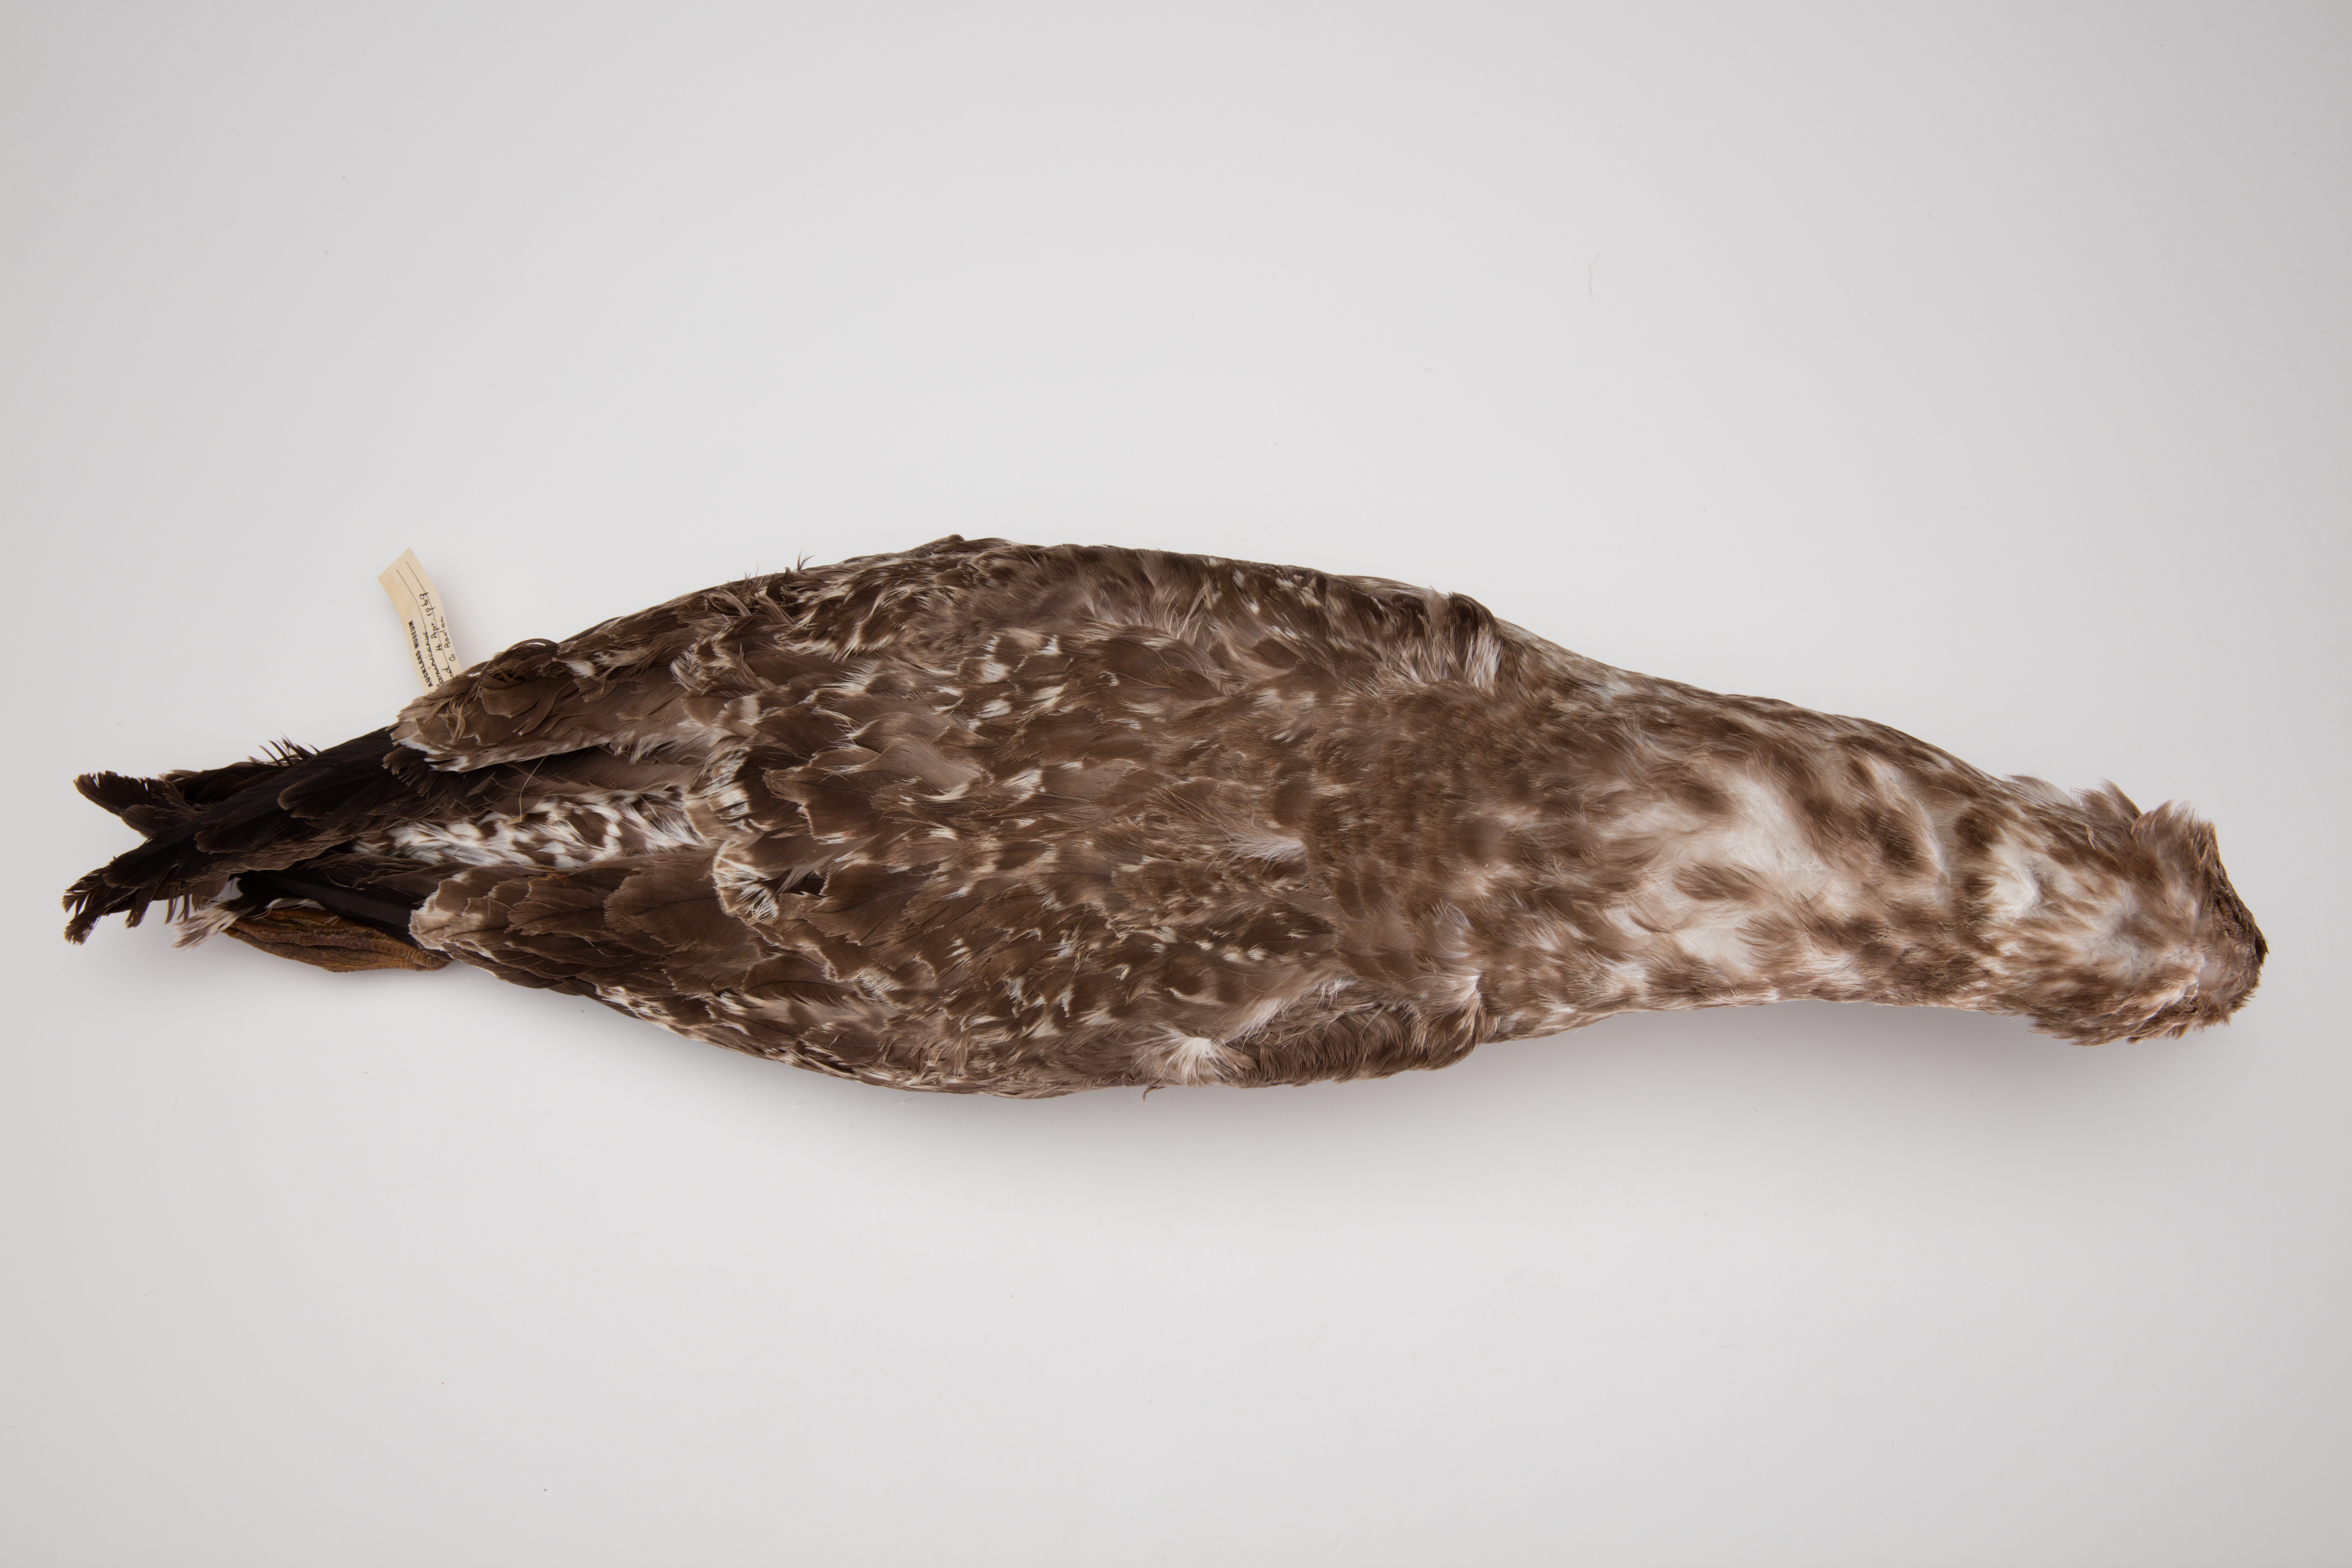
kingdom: Animalia
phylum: Chordata
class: Aves
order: Charadriiformes
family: Laridae
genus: Larus
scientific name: Larus dominicanus
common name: Kelp gull
